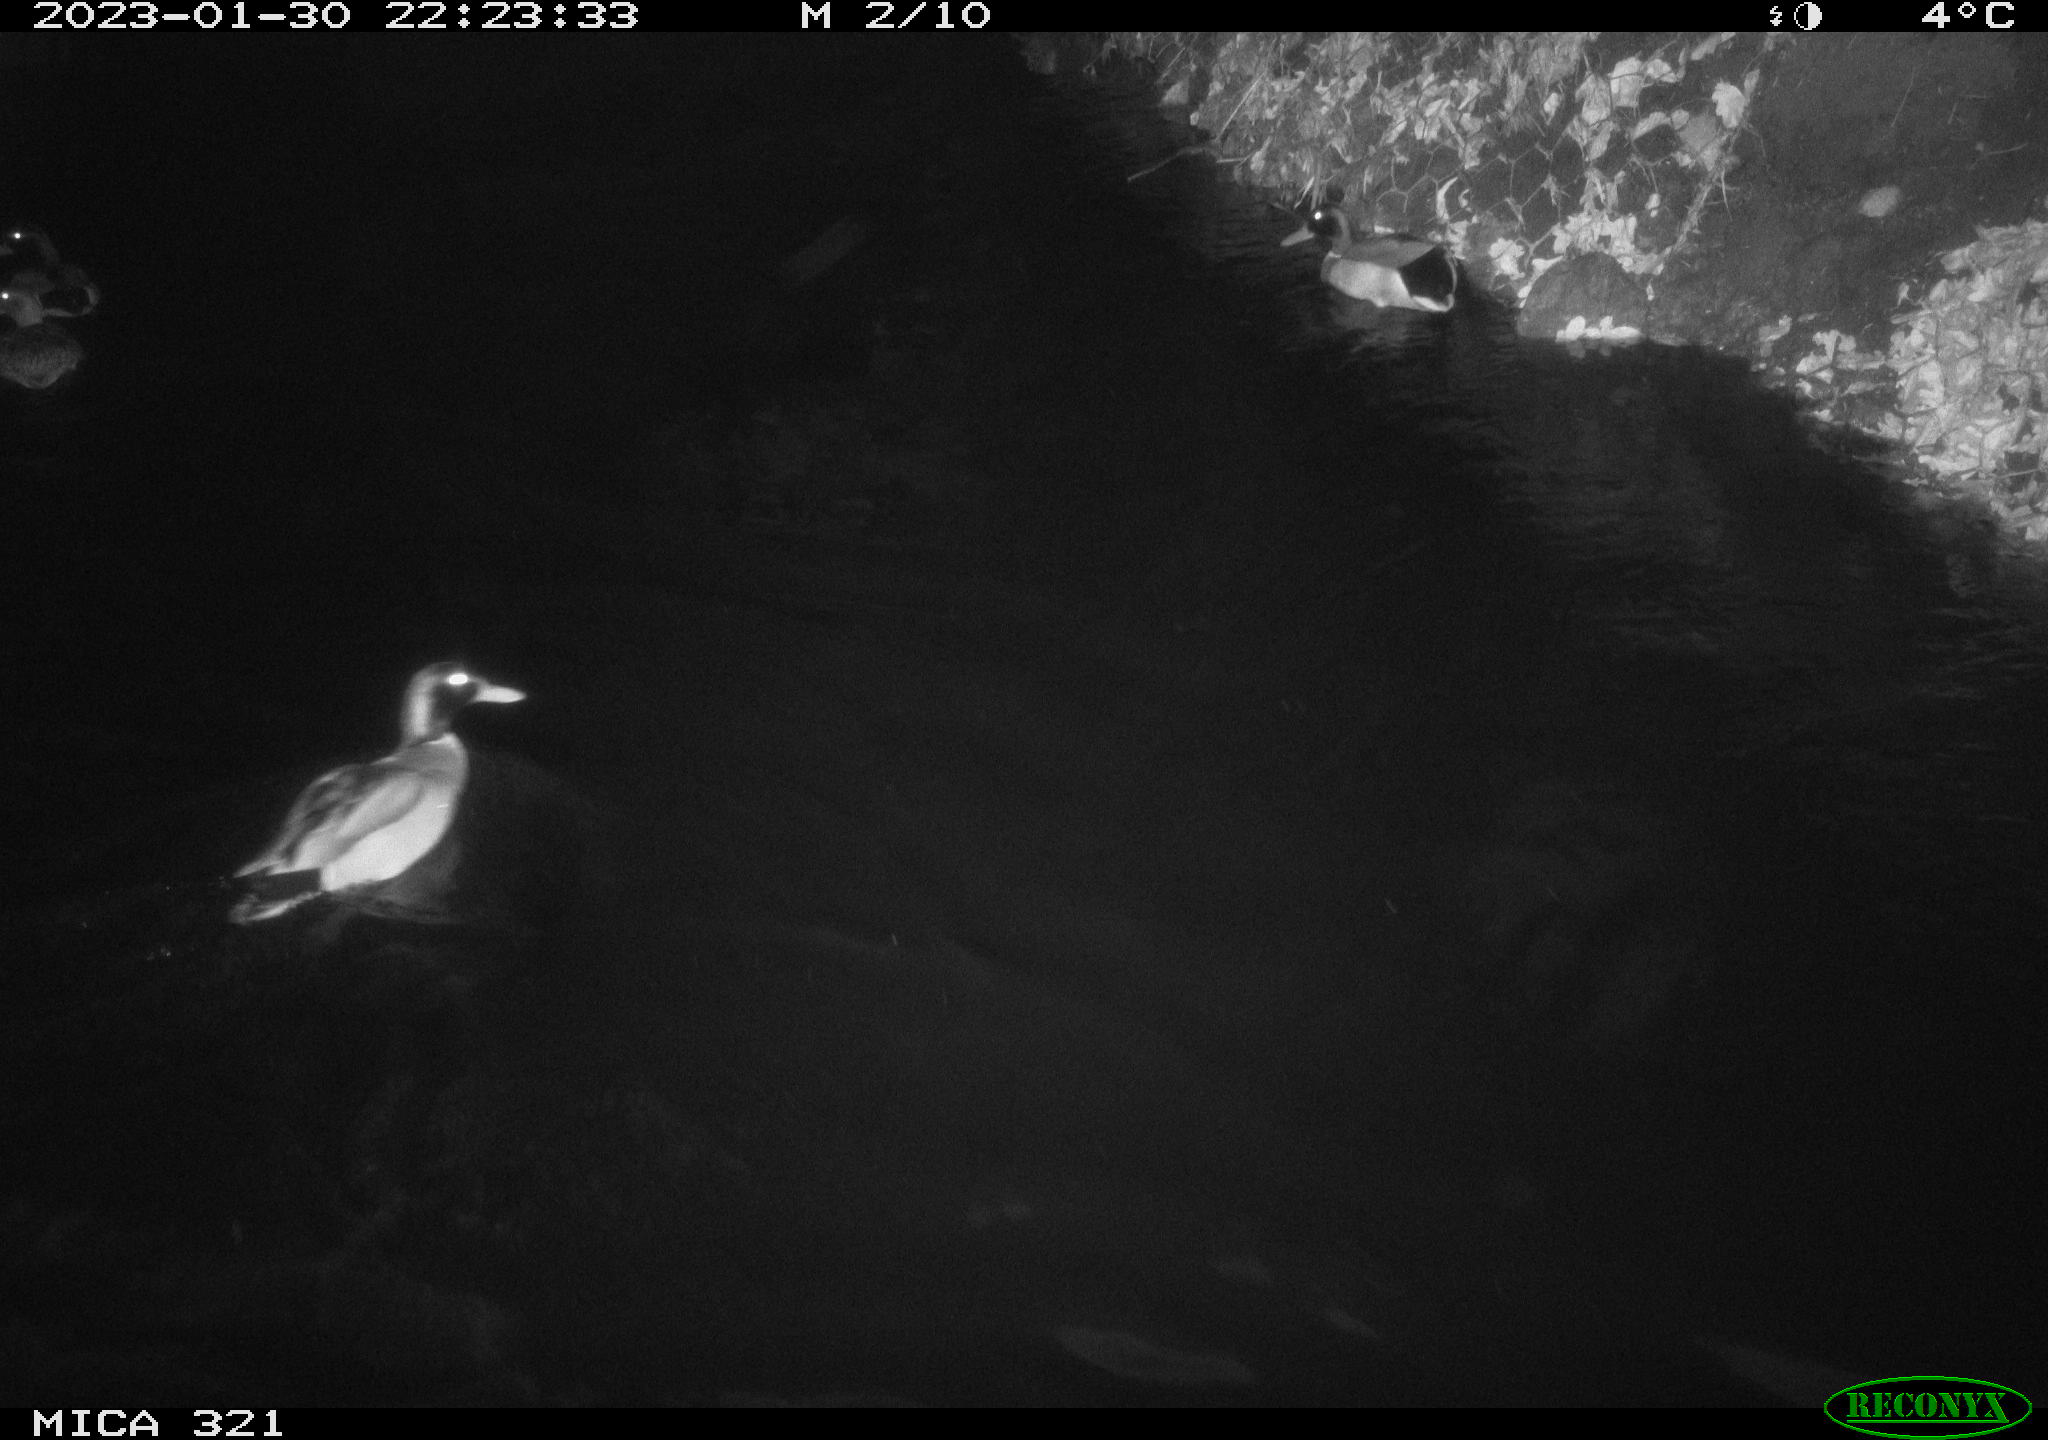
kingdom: Animalia
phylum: Chordata
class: Aves
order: Anseriformes
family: Anatidae
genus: Anas
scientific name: Anas
